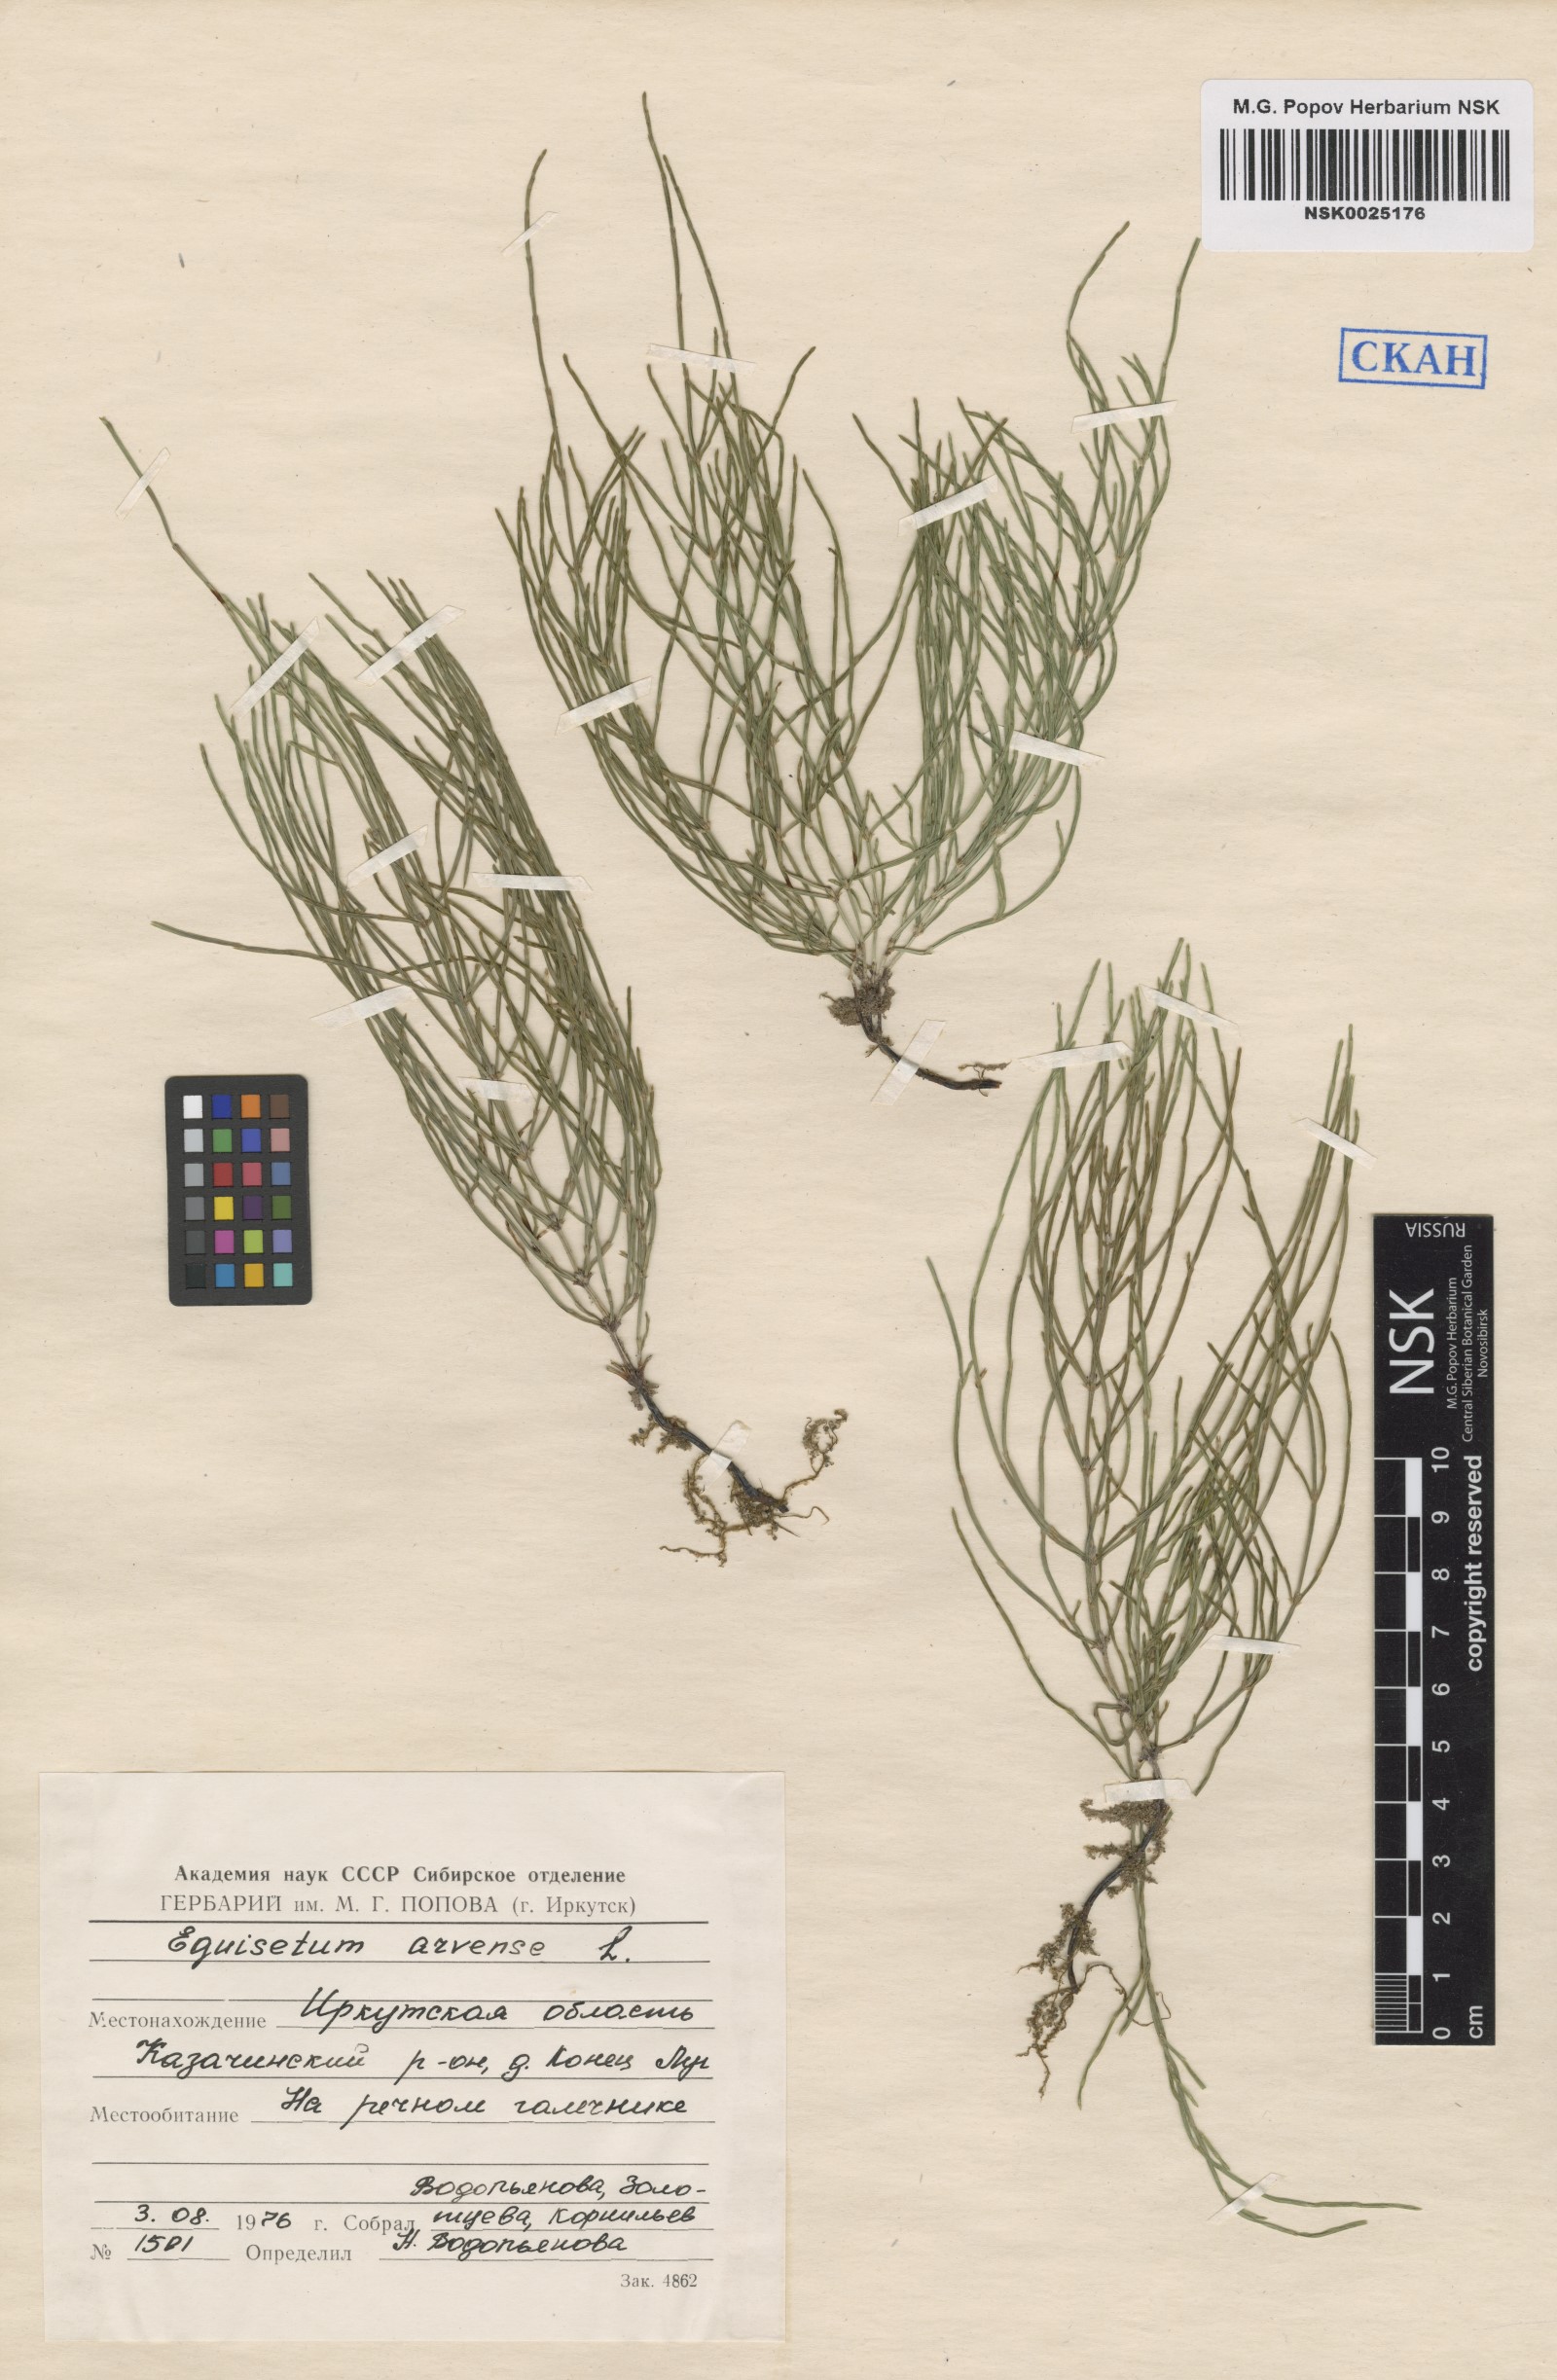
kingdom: Plantae
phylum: Tracheophyta
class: Polypodiopsida
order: Equisetales
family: Equisetaceae
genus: Equisetum
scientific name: Equisetum arvense
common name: Field horsetail
